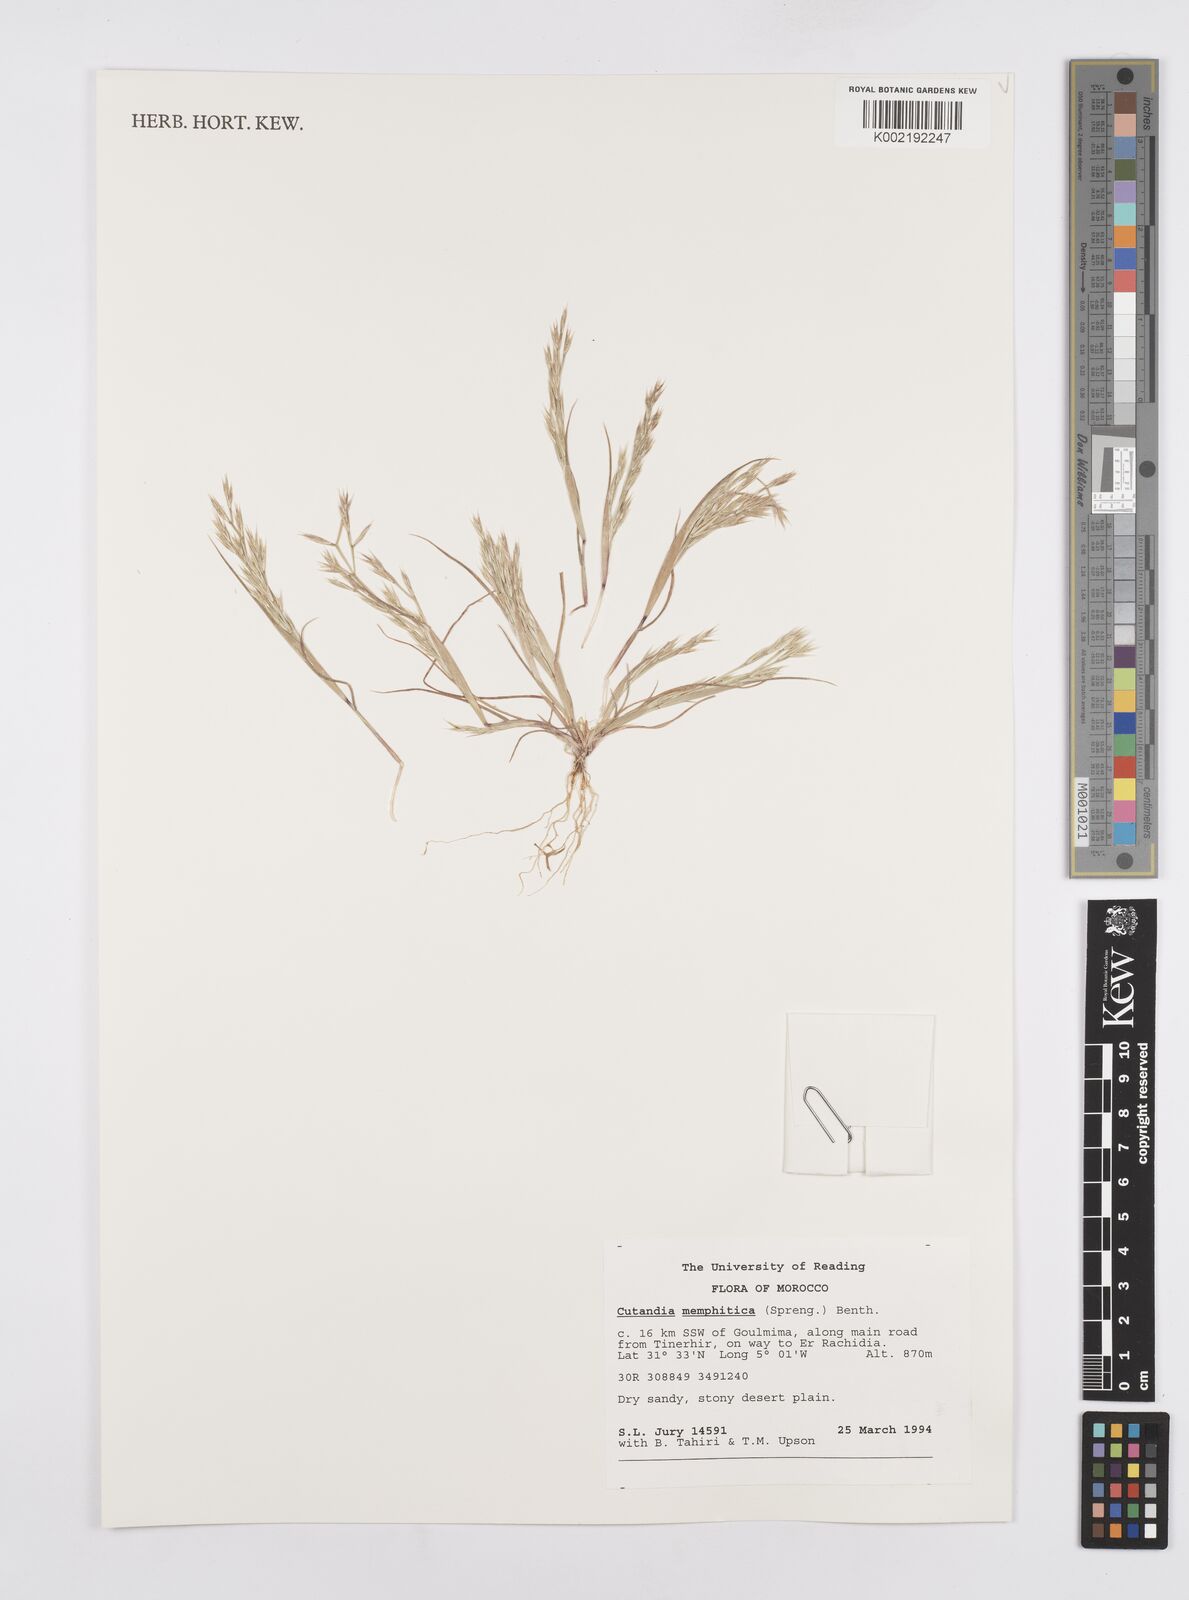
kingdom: Plantae
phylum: Tracheophyta
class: Liliopsida
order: Poales
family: Poaceae
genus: Cutandia
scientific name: Cutandia memphitica
